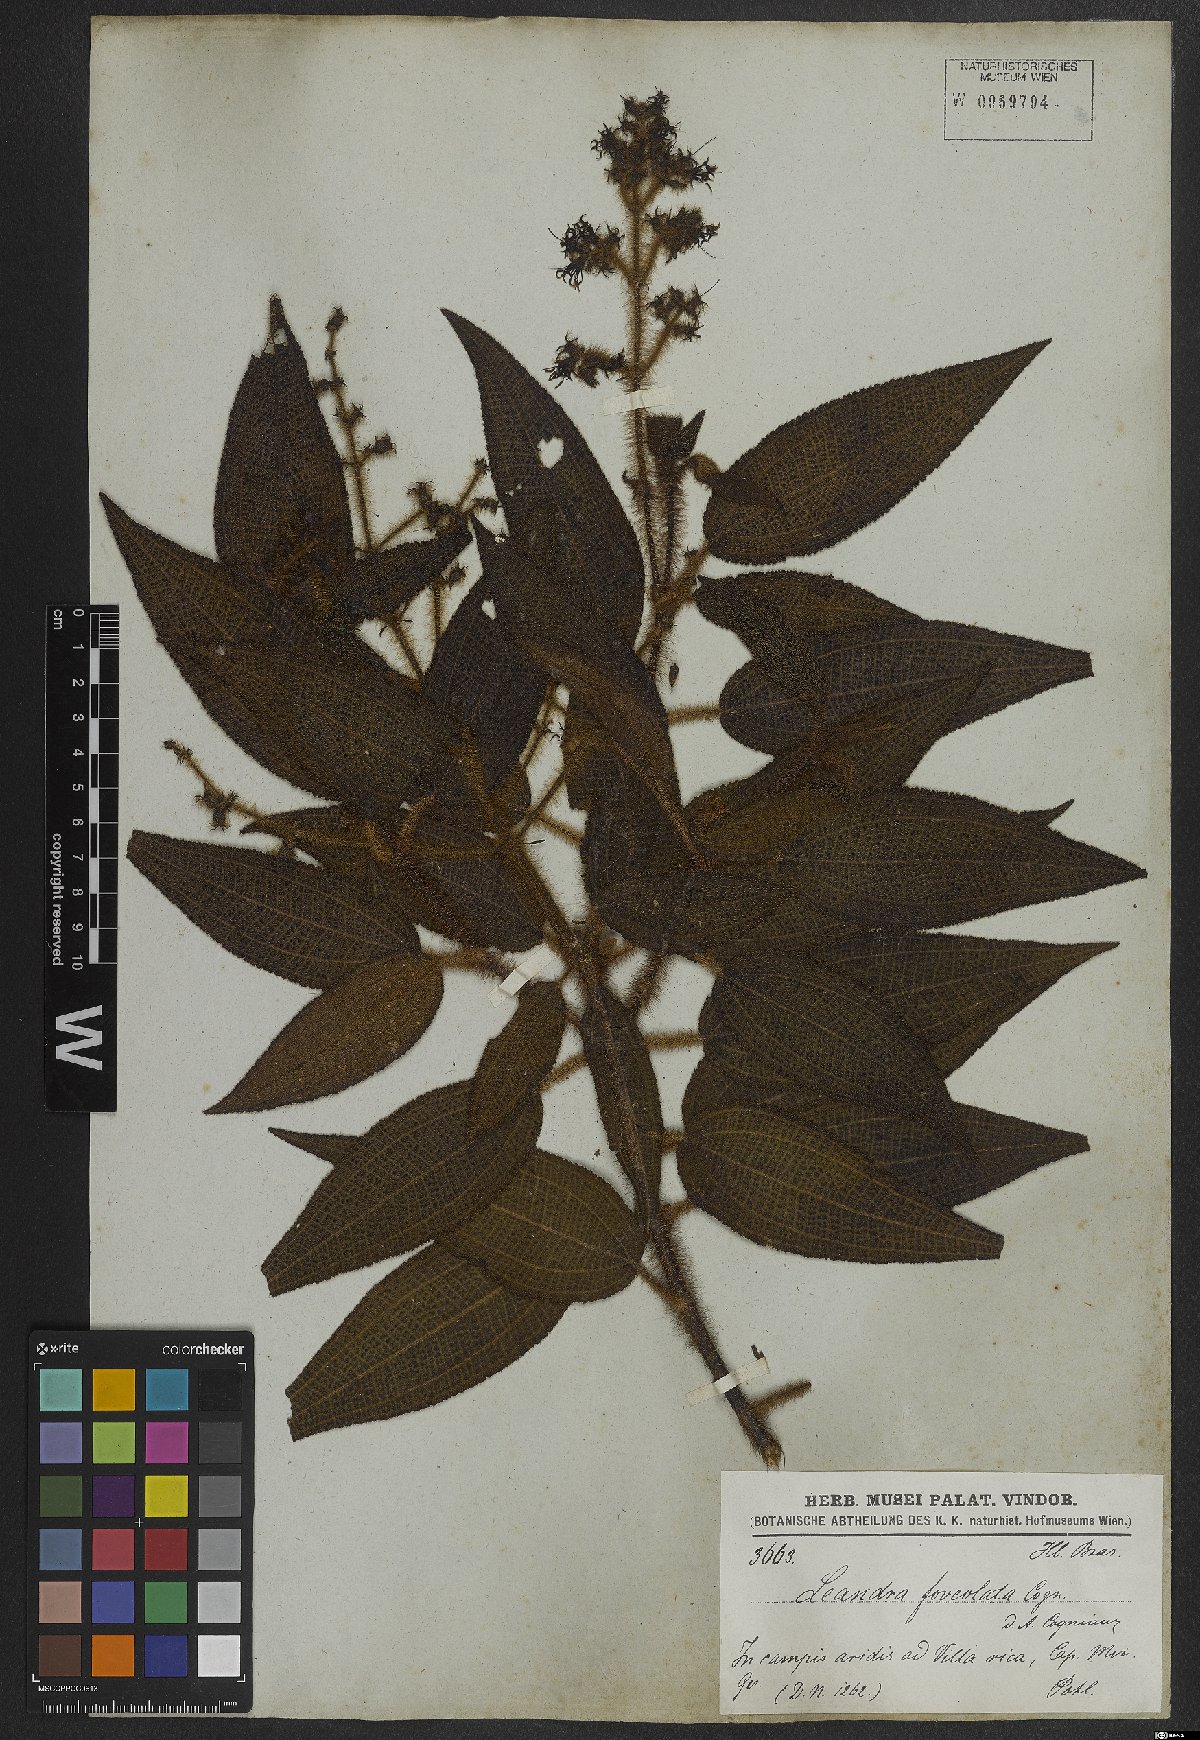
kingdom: Plantae
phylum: Tracheophyta
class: Magnoliopsida
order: Myrtales
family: Melastomataceae
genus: Miconia
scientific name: Miconia leafoveolata
